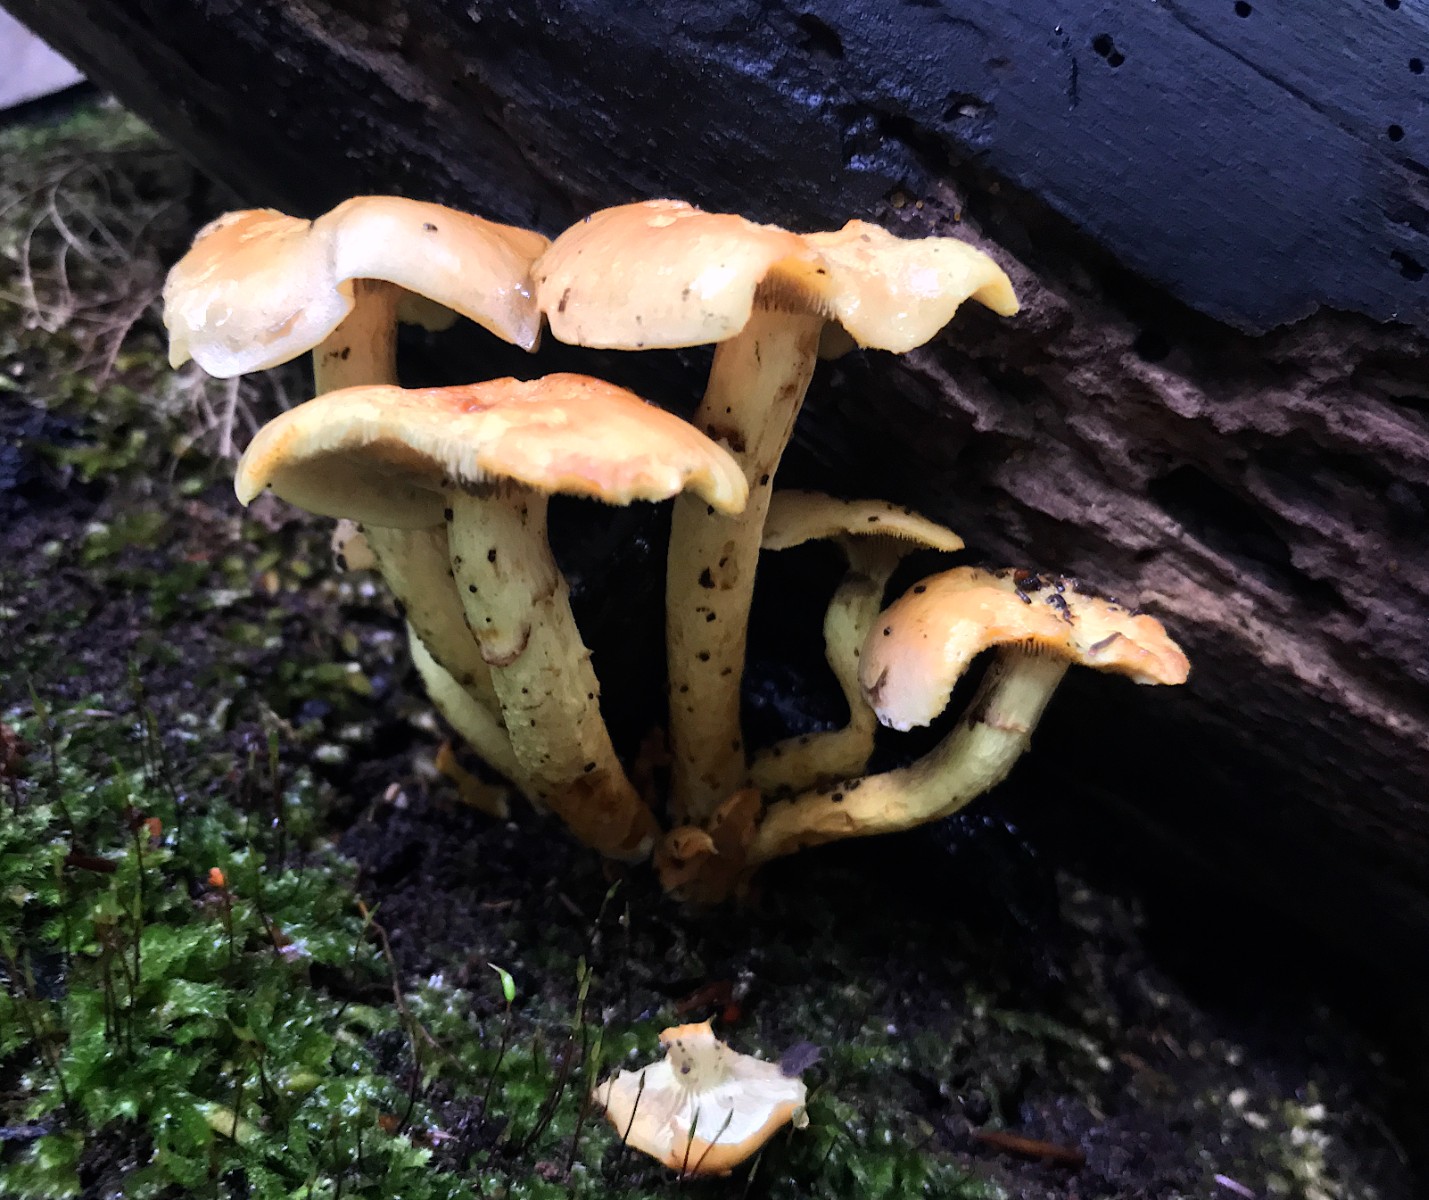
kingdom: Fungi
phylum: Basidiomycota
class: Agaricomycetes
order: Agaricales
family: Strophariaceae
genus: Hypholoma
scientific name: Hypholoma fasciculare
